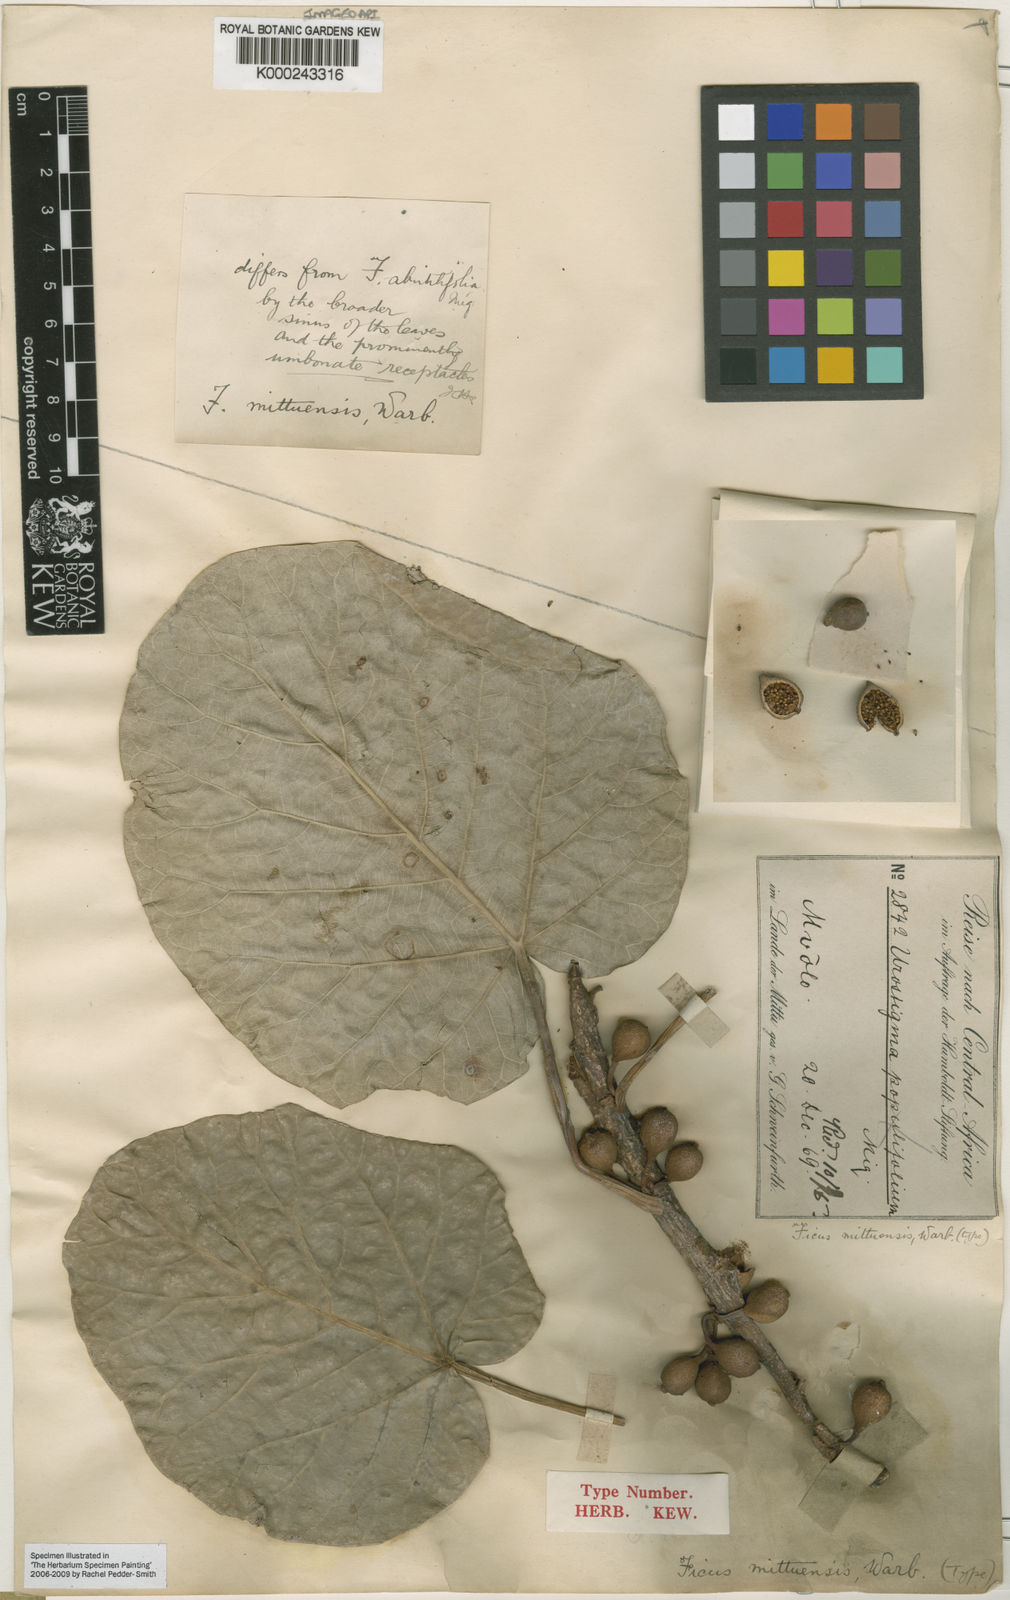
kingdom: Plantae
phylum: Tracheophyta
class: Magnoliopsida
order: Rosales
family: Moraceae
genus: Ficus
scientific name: Ficus abutilifolia
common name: Large-leaved rock fig
